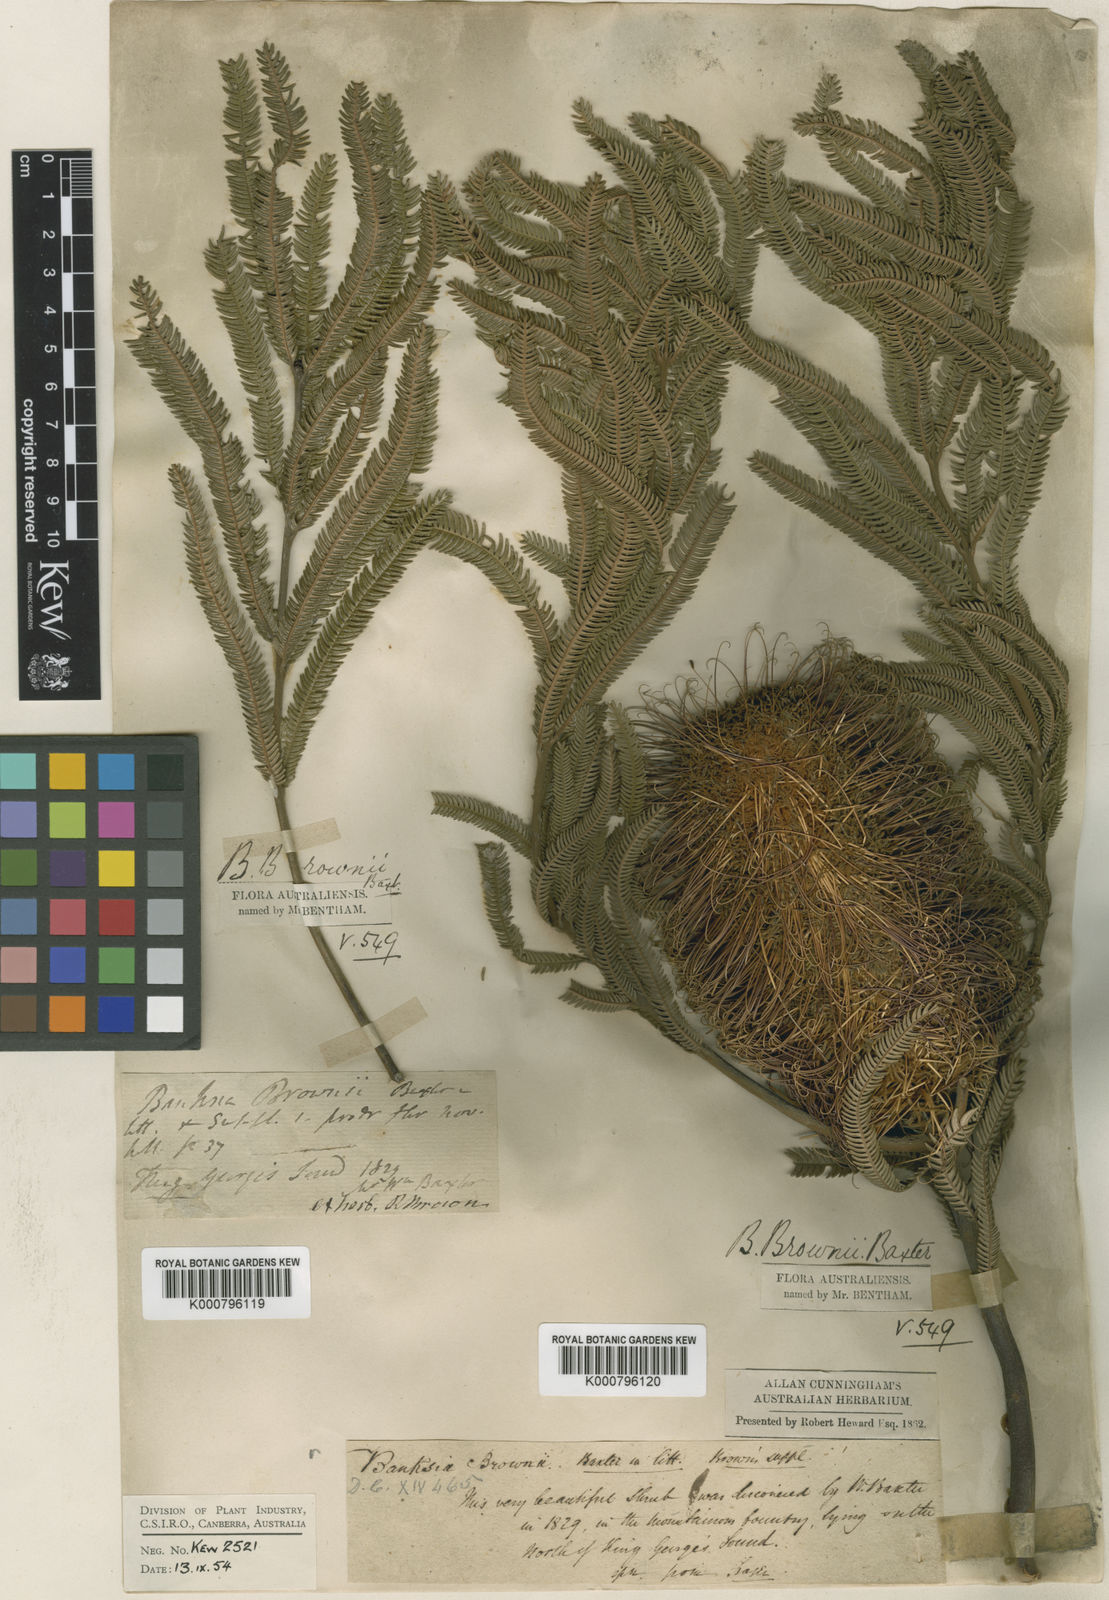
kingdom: Plantae
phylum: Tracheophyta
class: Magnoliopsida
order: Proteales
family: Proteaceae
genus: Banksia
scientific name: Banksia brownii
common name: Brown’s banksia
